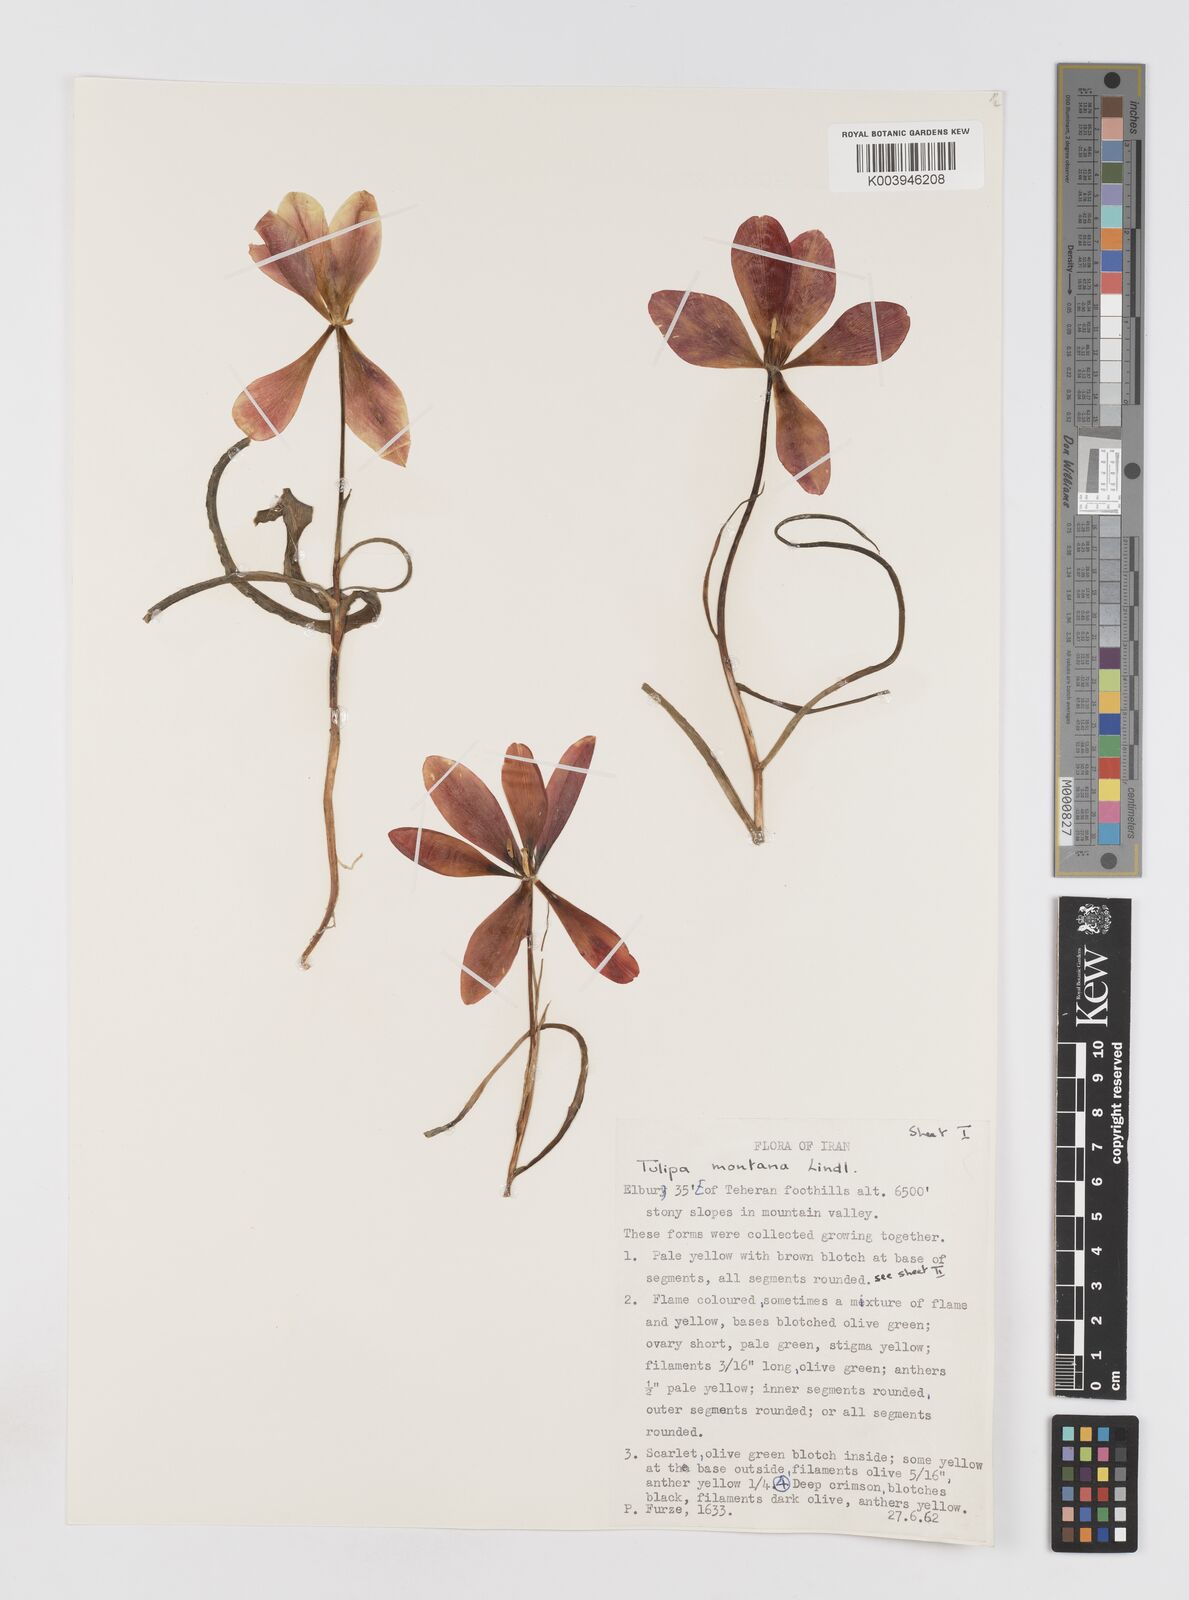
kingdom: Plantae
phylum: Tracheophyta
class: Liliopsida
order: Liliales
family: Liliaceae
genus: Tulipa
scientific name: Tulipa montana
